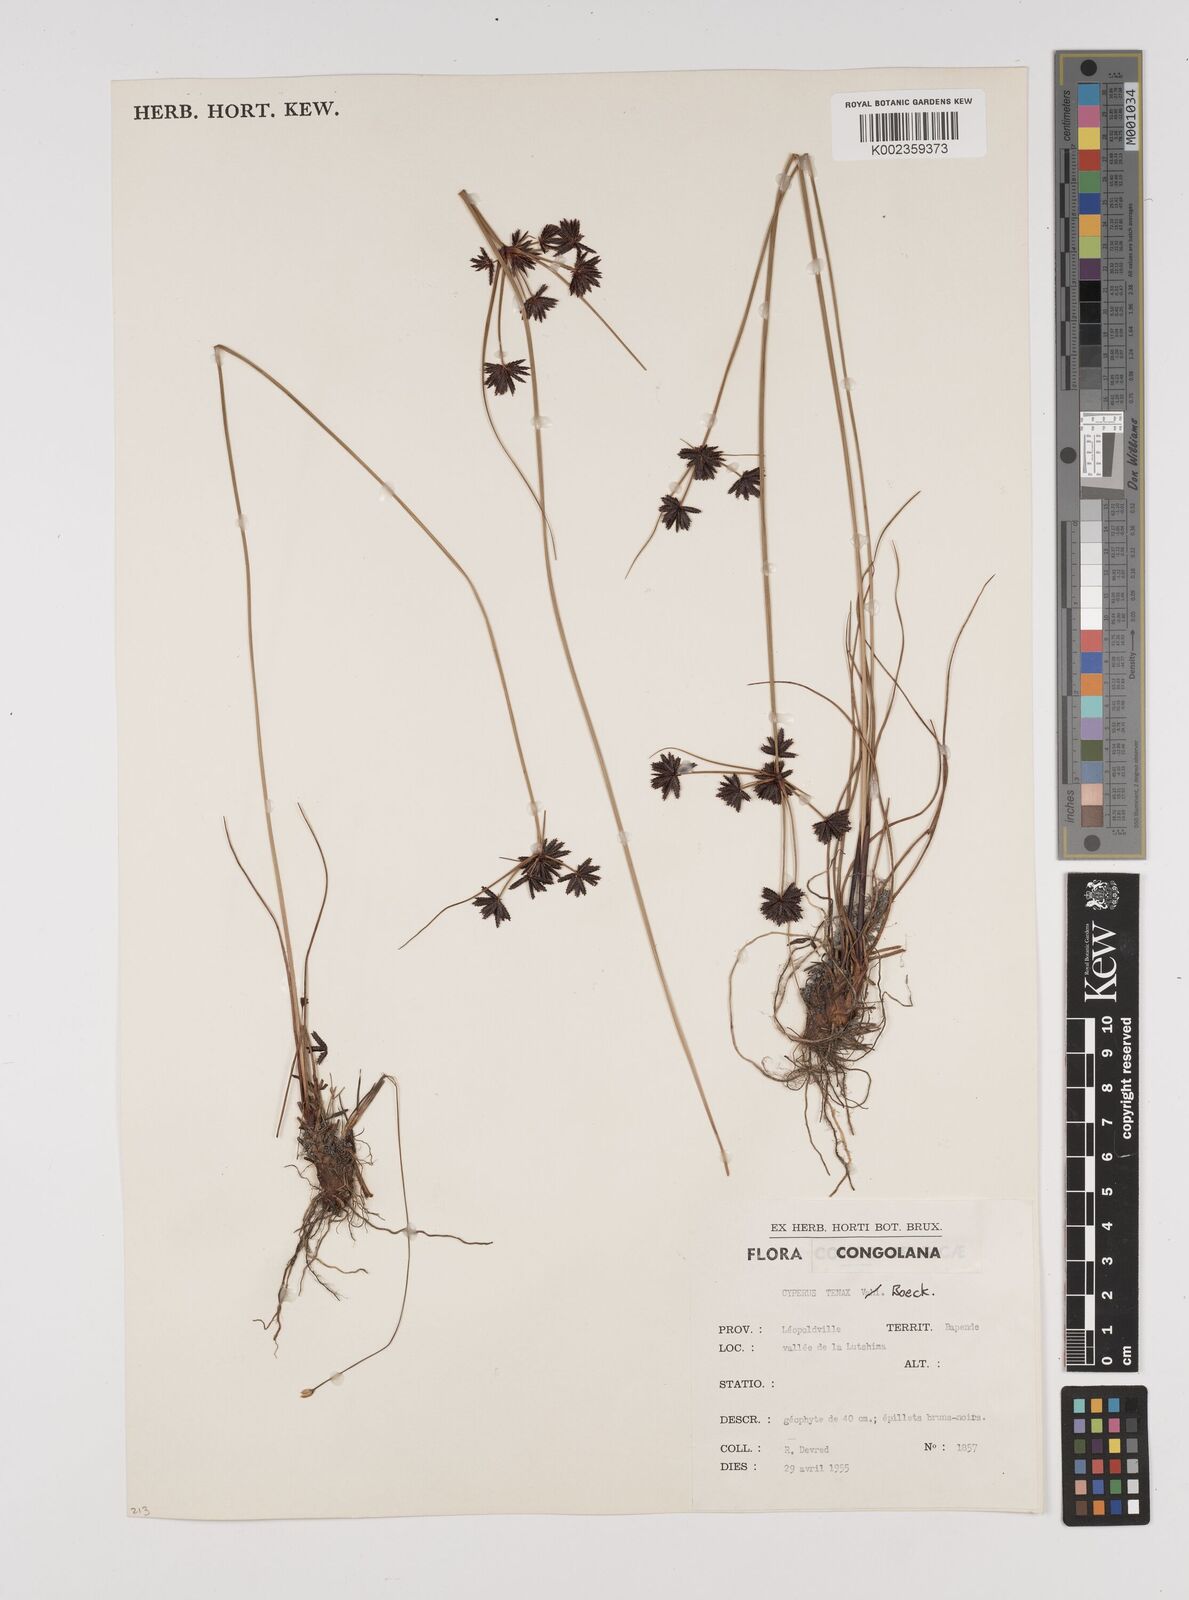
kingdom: Plantae
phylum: Tracheophyta
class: Liliopsida
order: Poales
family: Cyperaceae
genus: Cyperus
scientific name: Cyperus tenax
